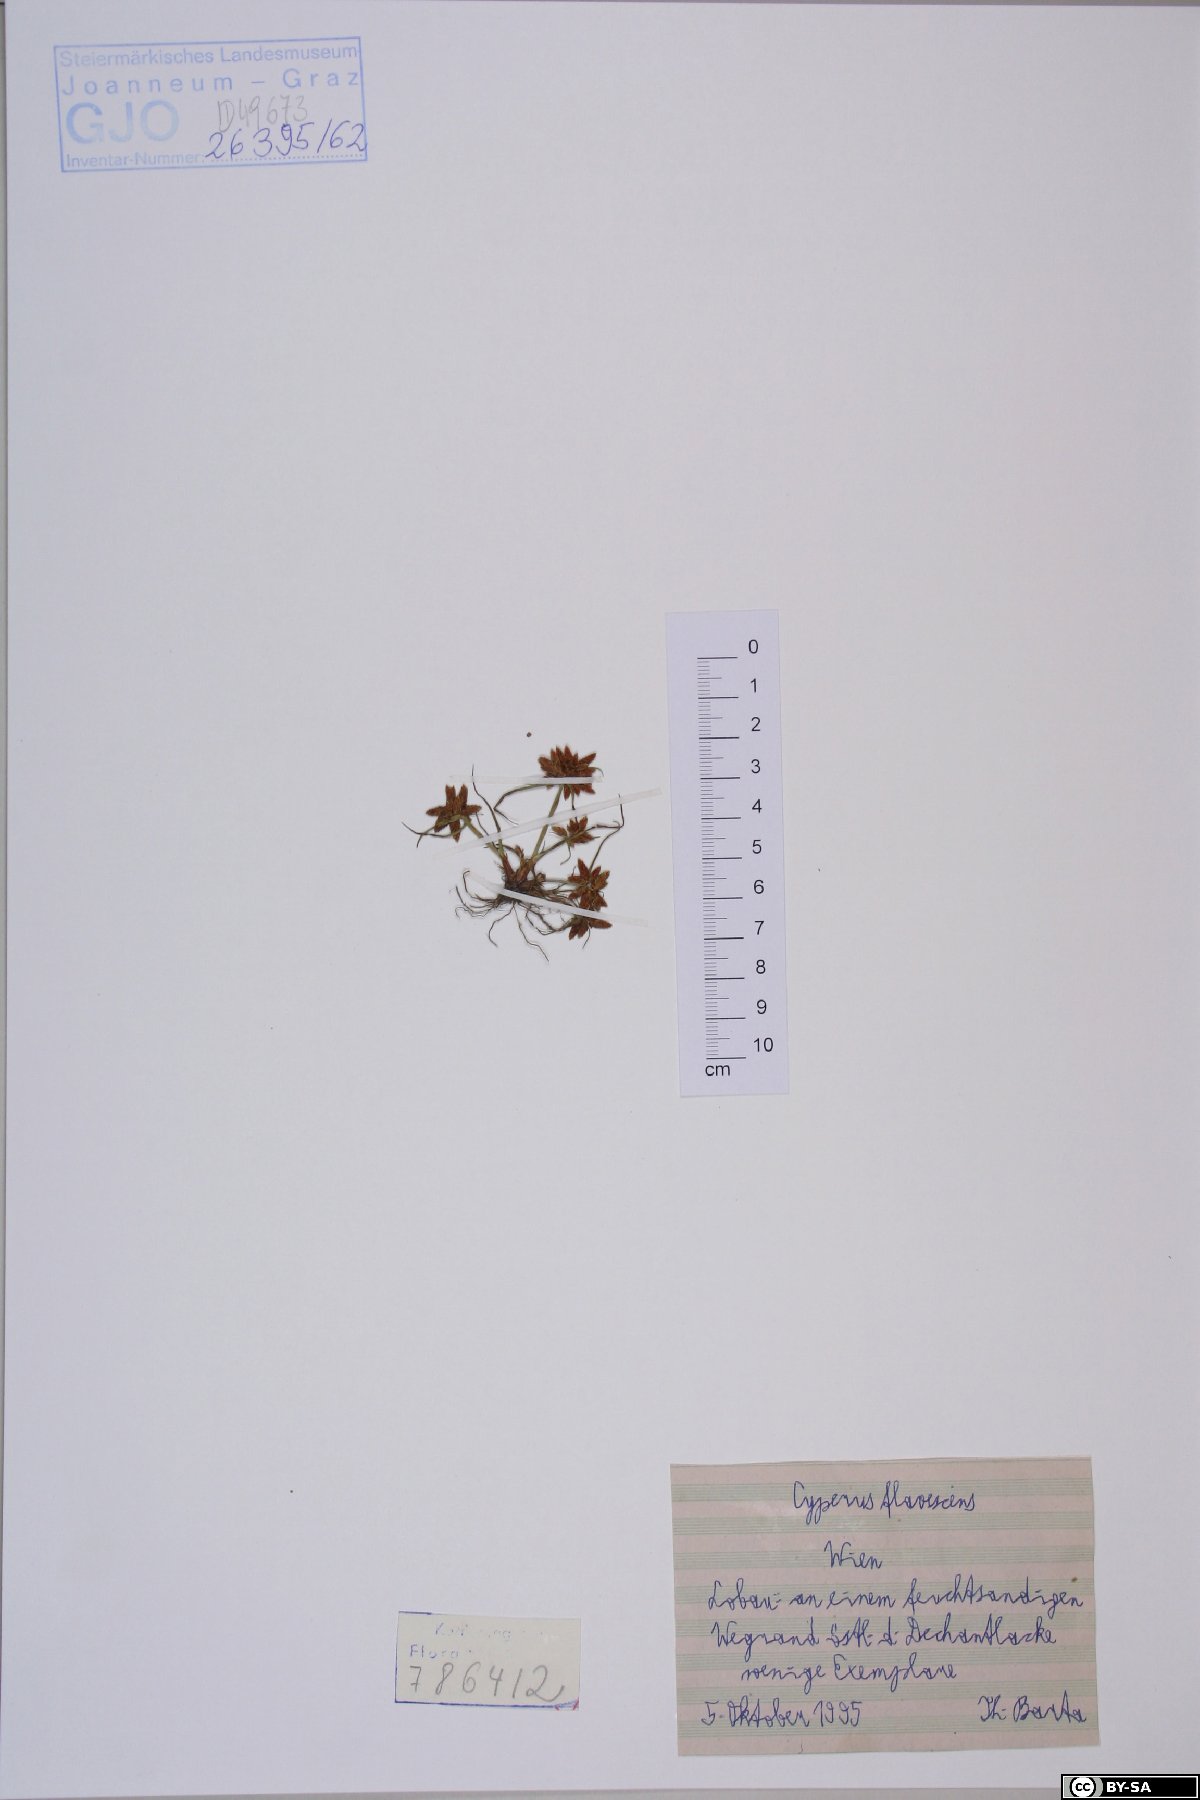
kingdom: Plantae
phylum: Tracheophyta
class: Liliopsida
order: Poales
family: Cyperaceae
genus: Cyperus
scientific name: Cyperus flavescens
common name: Yellow galingale
